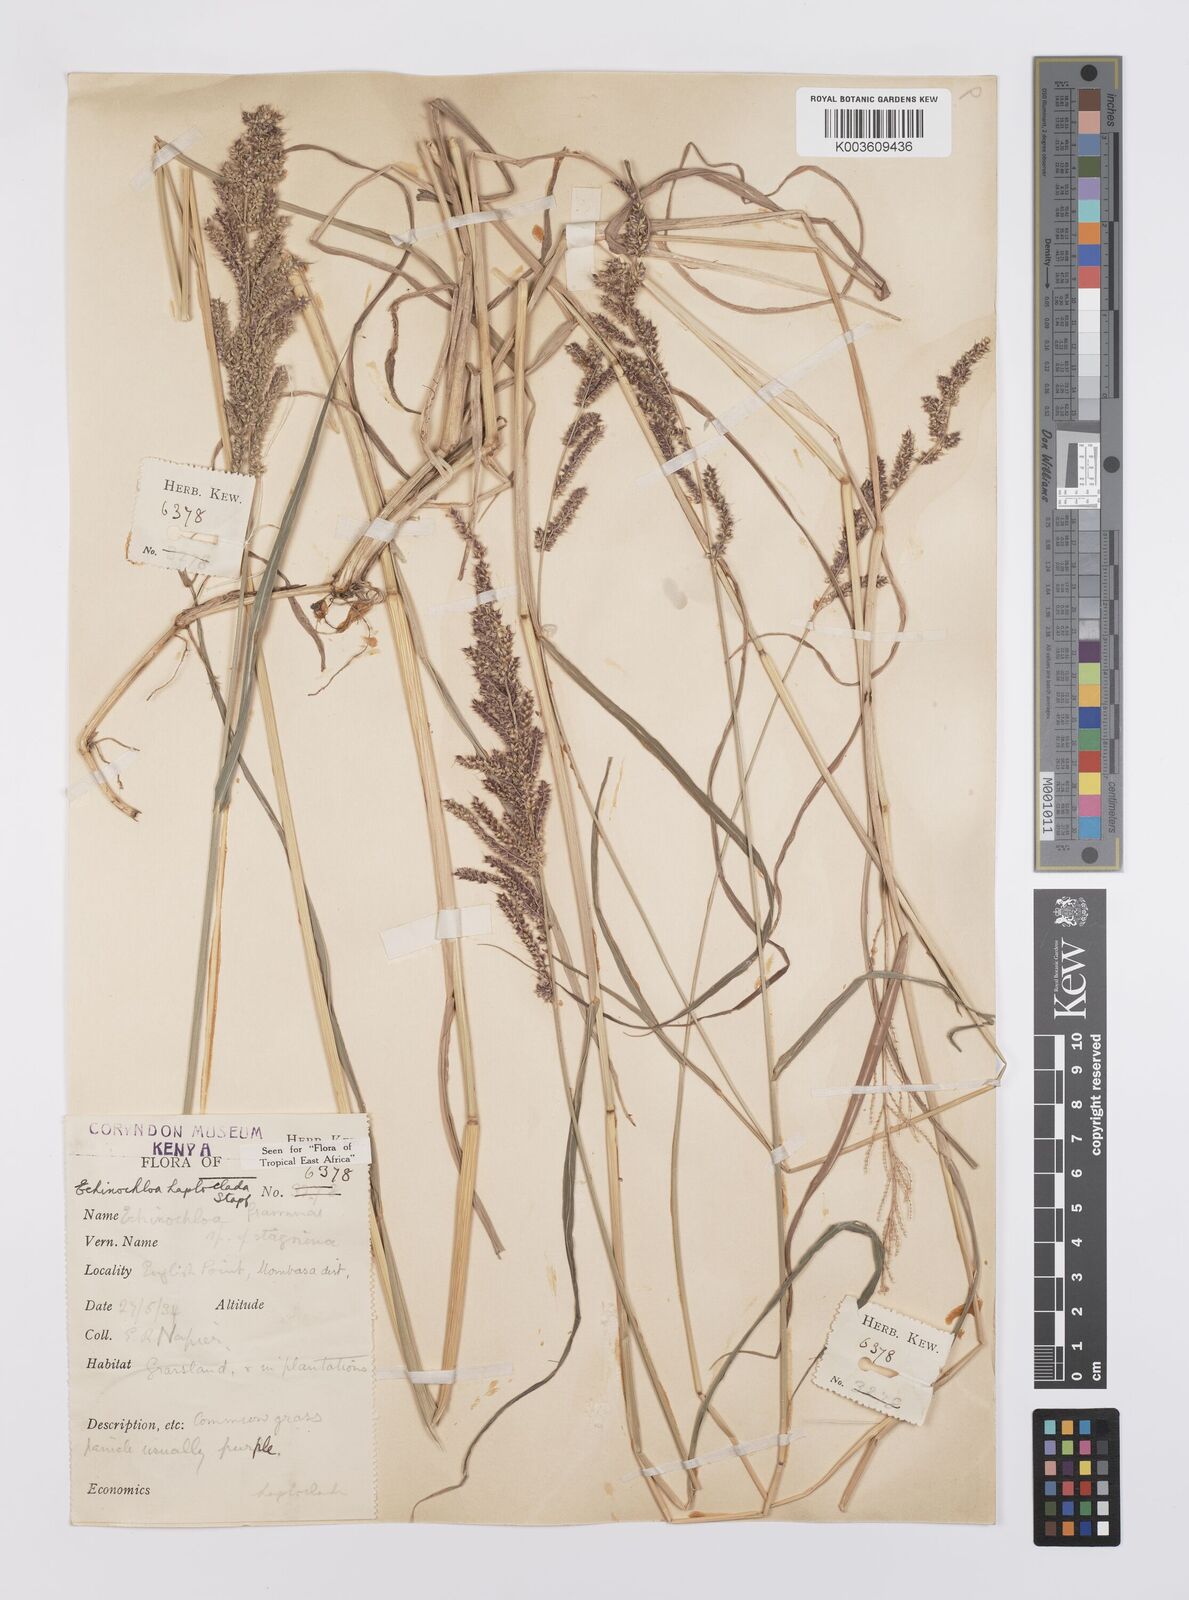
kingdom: Plantae
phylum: Tracheophyta
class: Liliopsida
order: Poales
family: Poaceae
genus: Echinochloa
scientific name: Echinochloa haploclada
